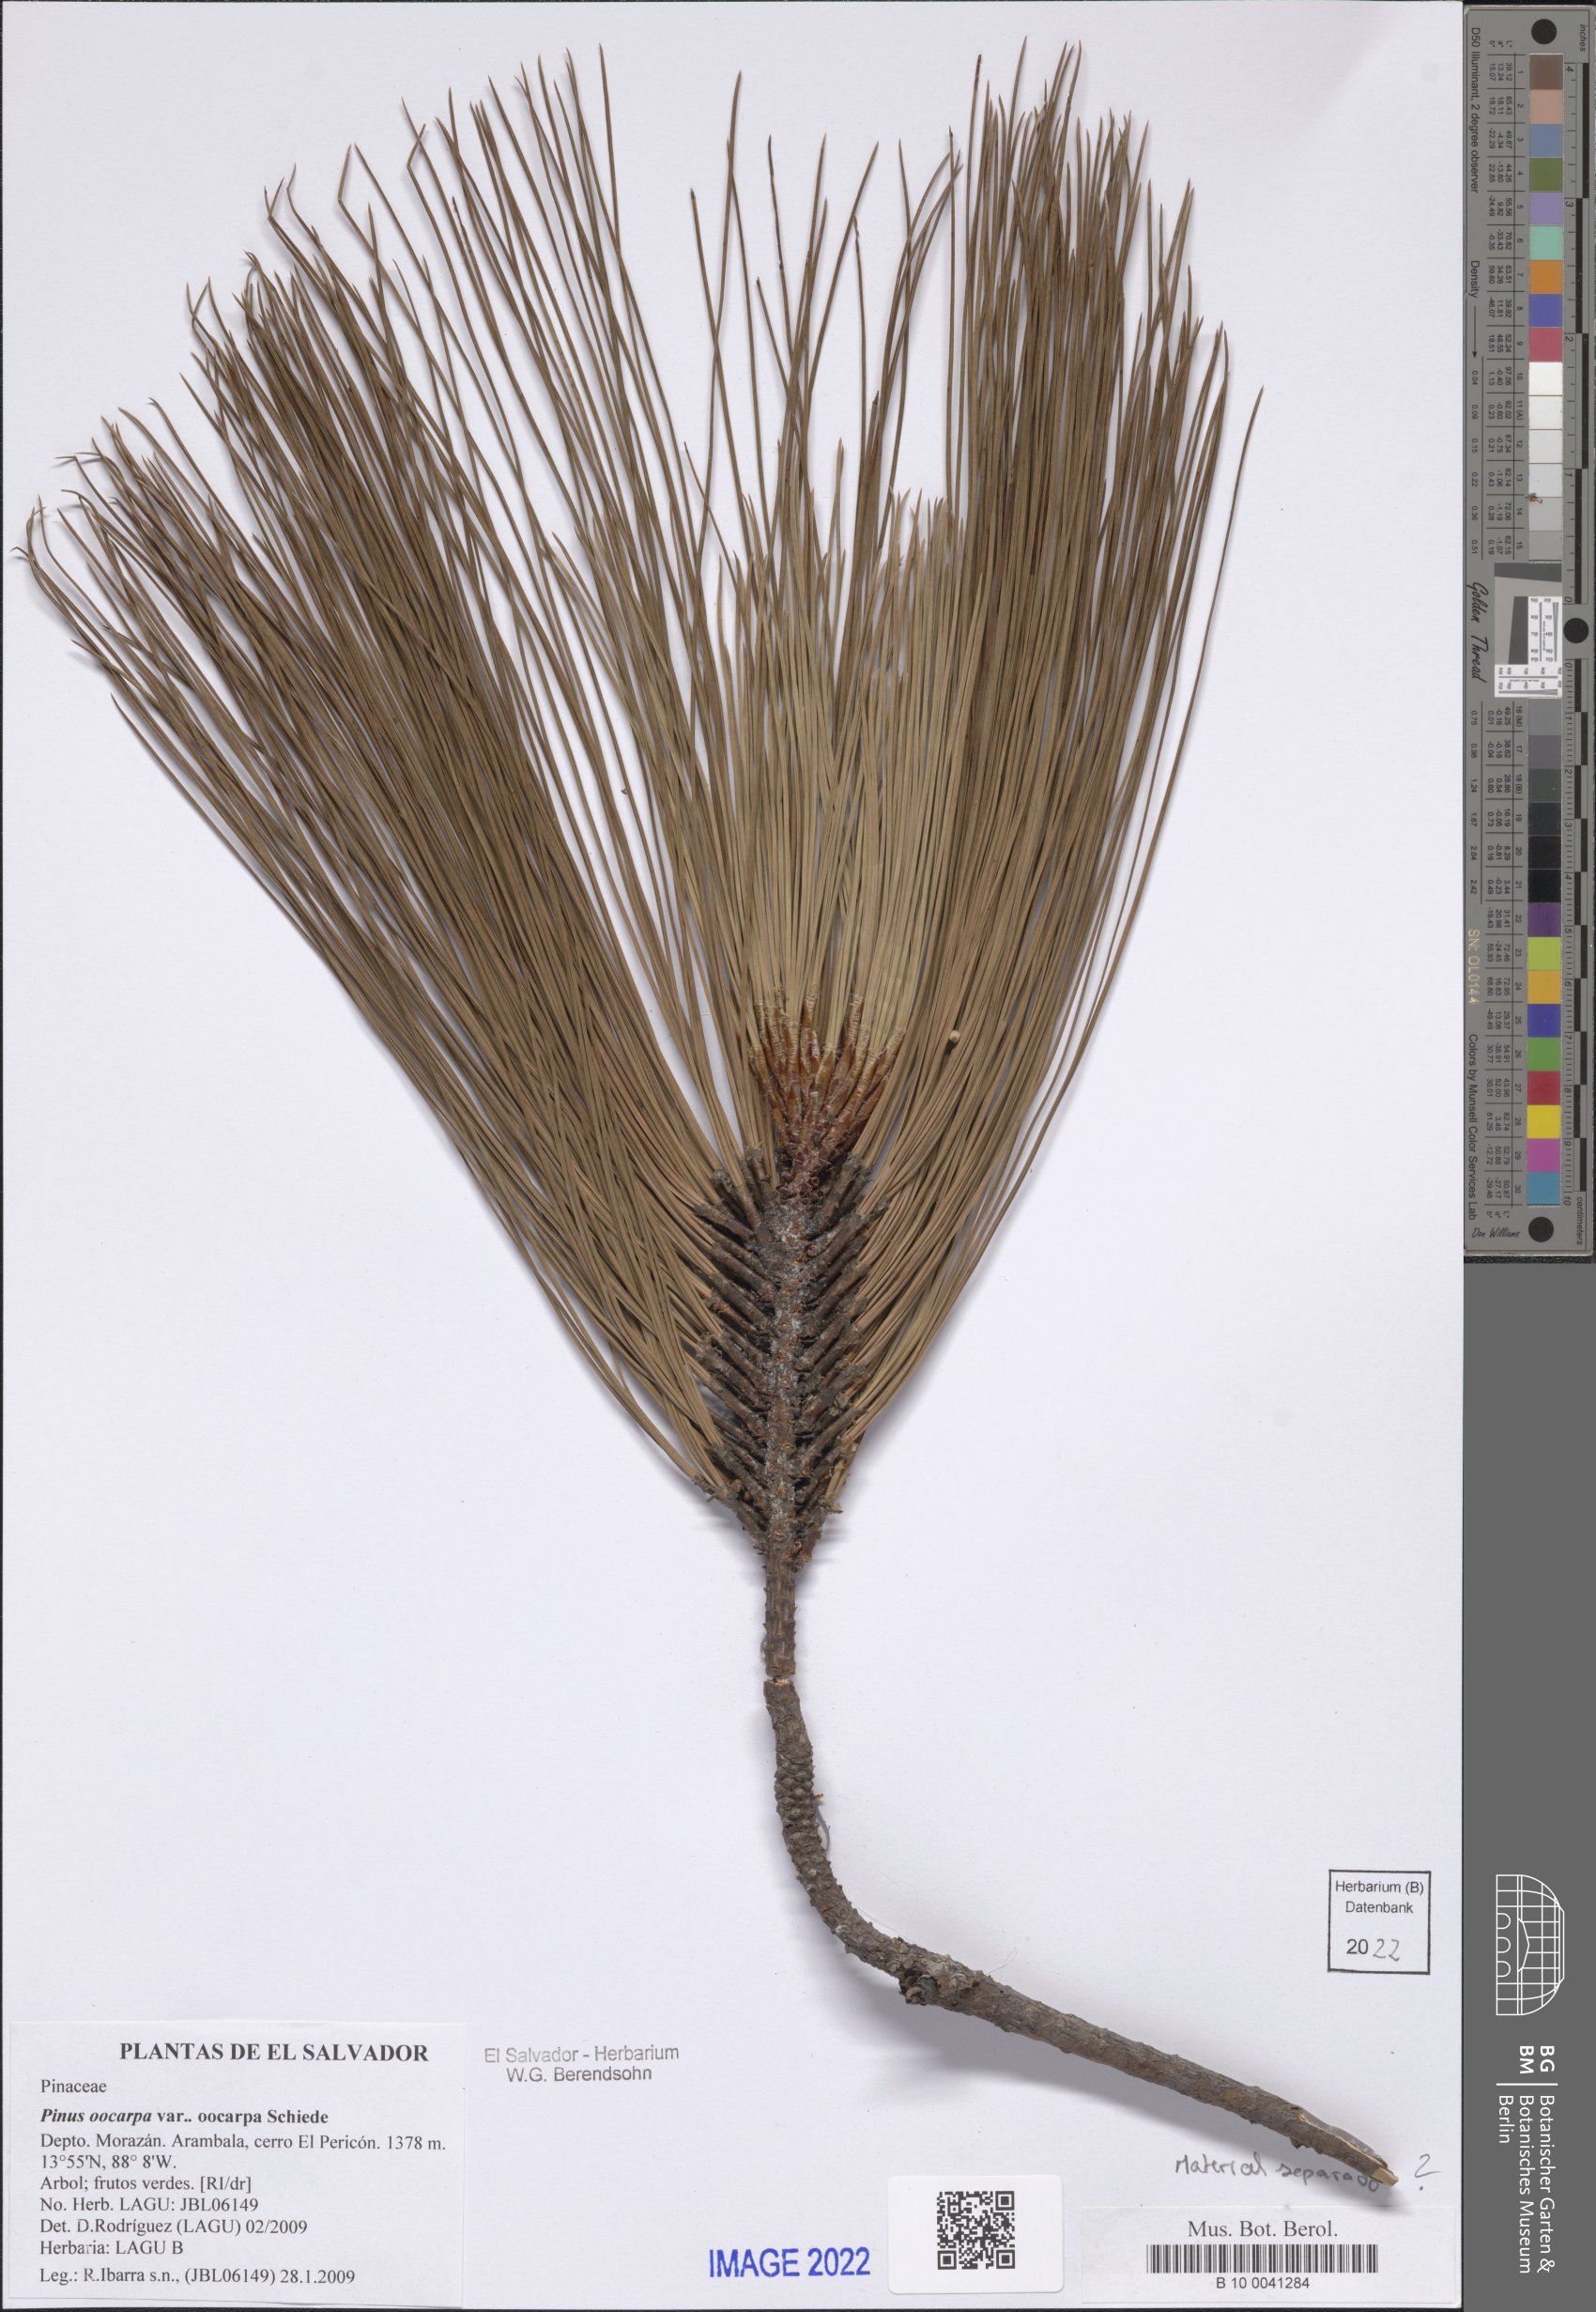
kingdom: Plantae
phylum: Tracheophyta
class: Pinopsida
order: Pinales
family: Pinaceae
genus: Pinus
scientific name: Pinus oocarpa
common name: Egg-cone pine
